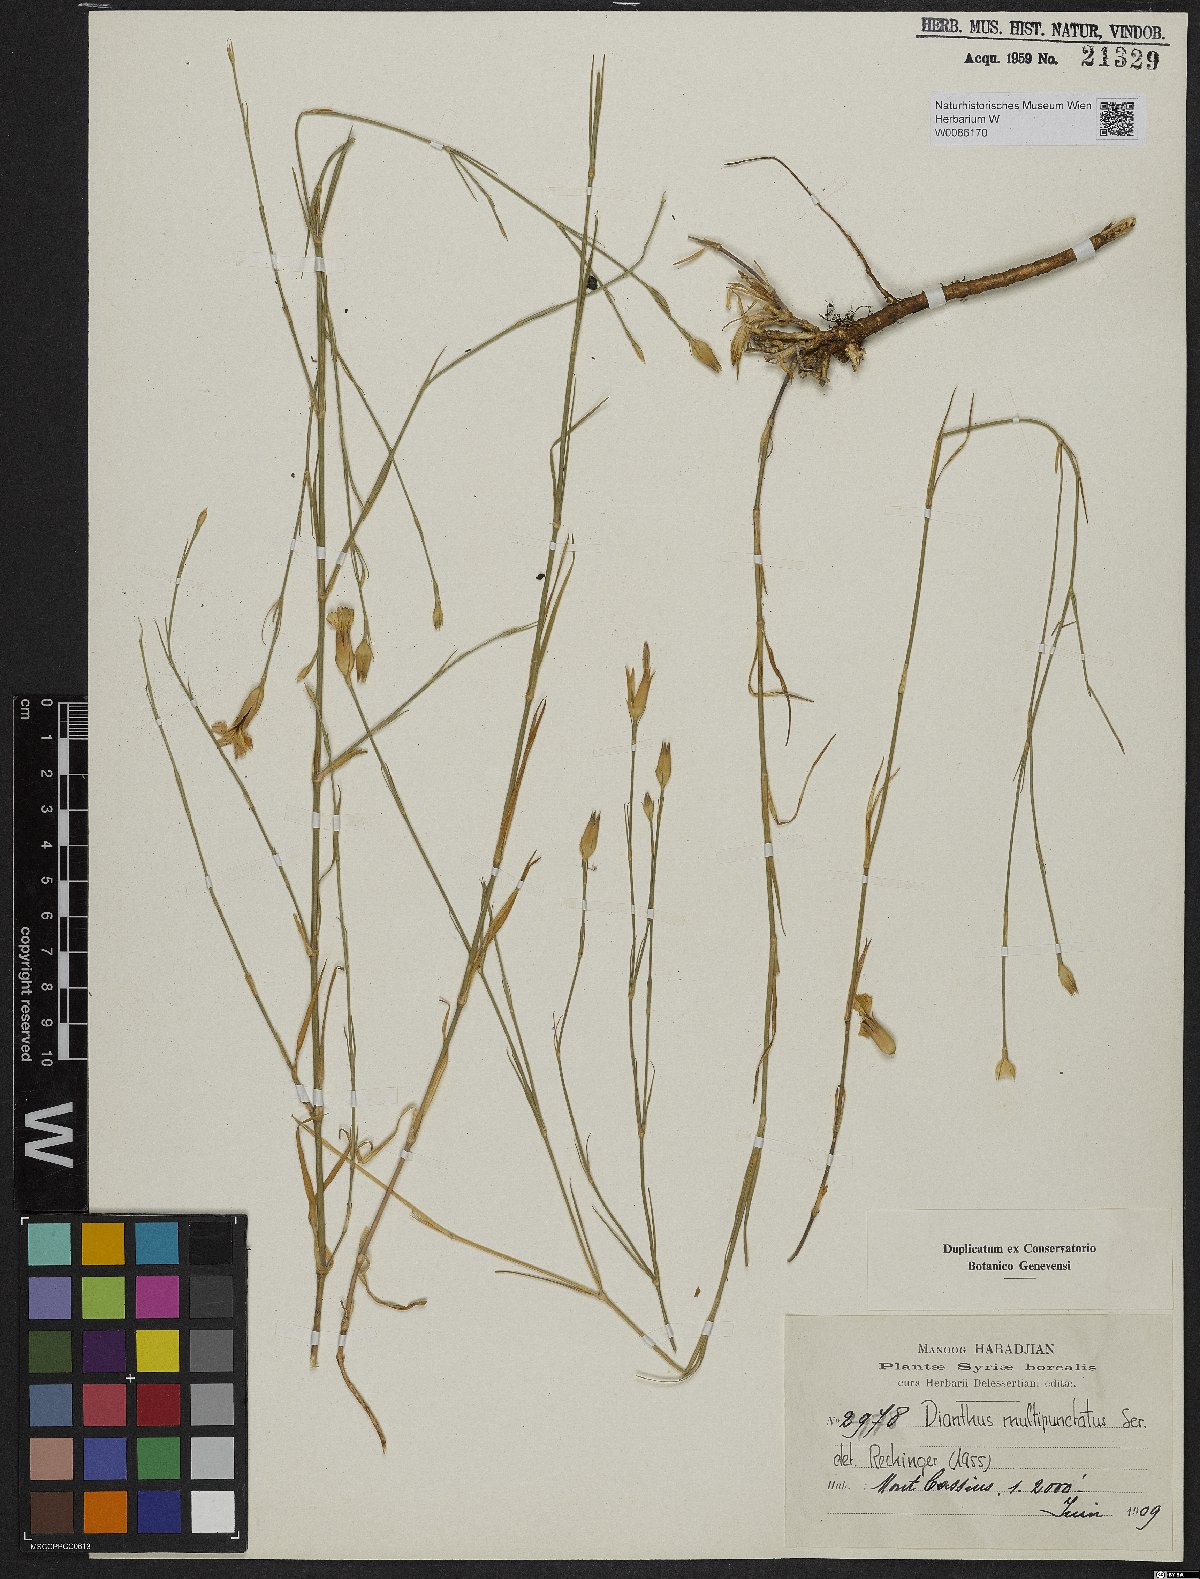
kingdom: Plantae
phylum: Tracheophyta
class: Magnoliopsida
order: Caryophyllales
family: Caryophyllaceae
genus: Dianthus
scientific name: Dianthus subacaulis
